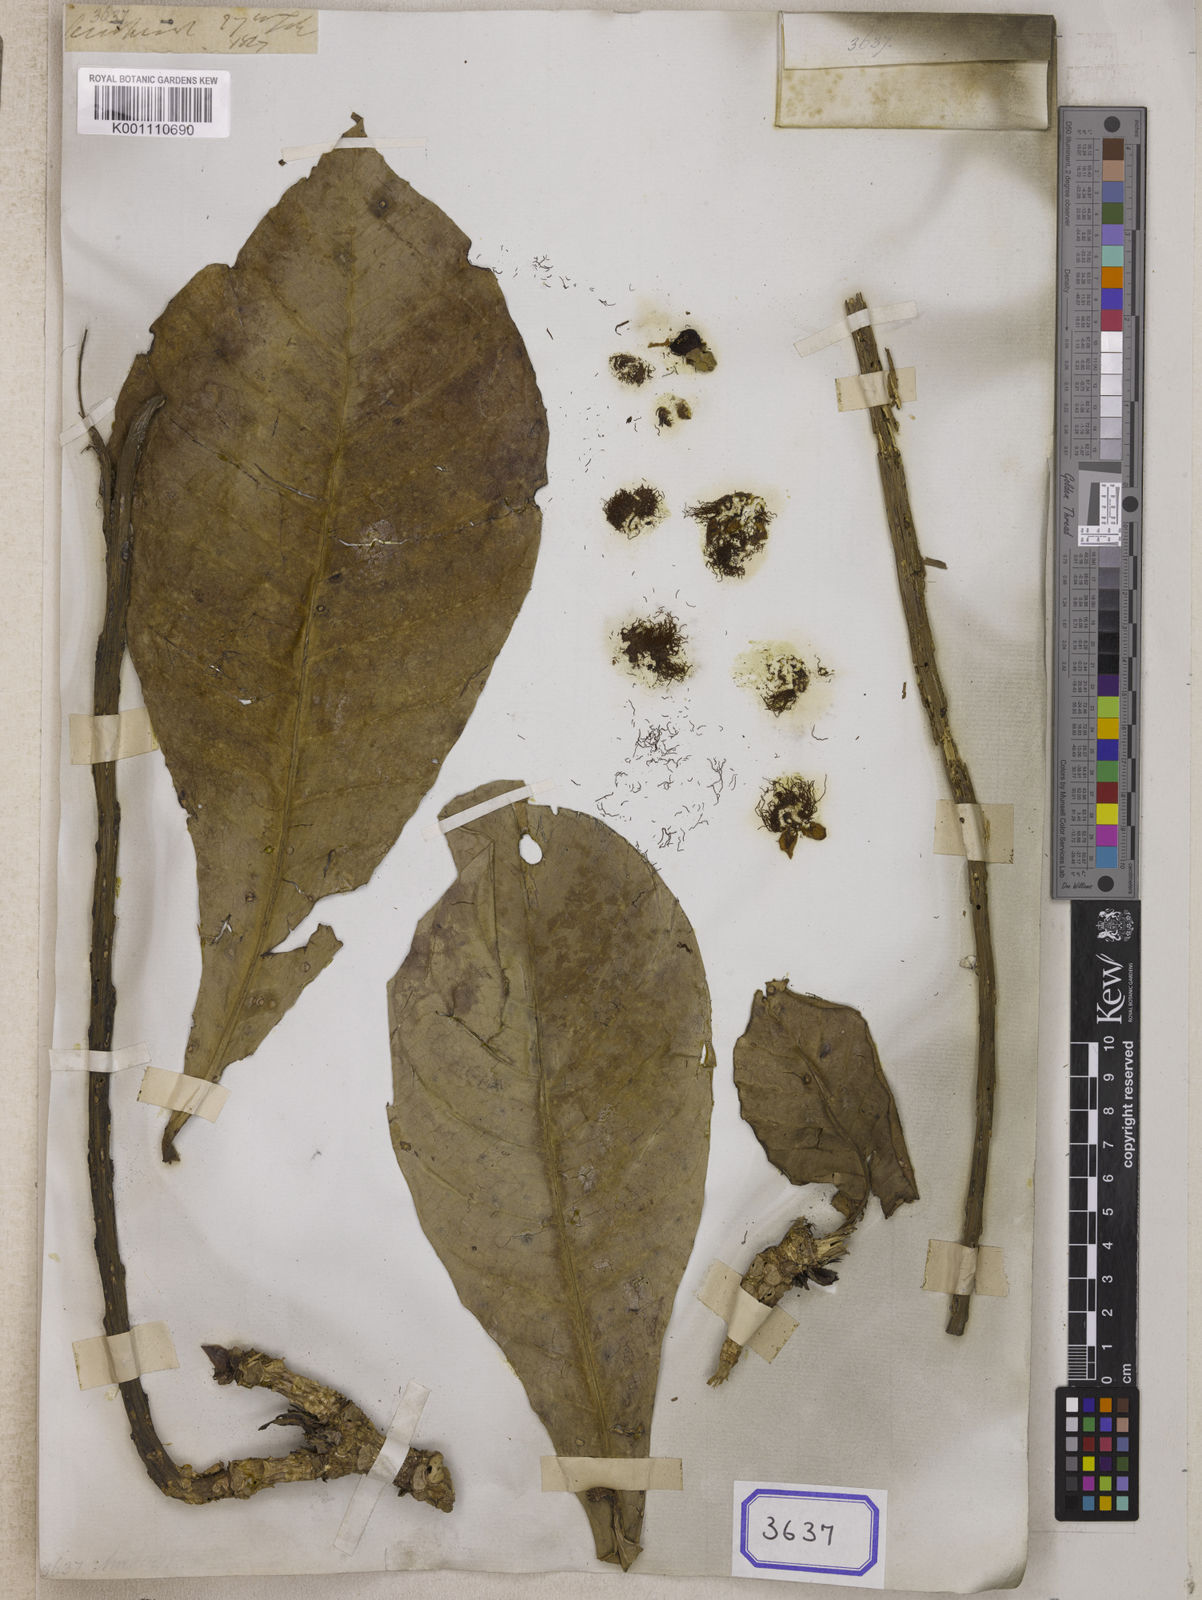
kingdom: Plantae
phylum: Tracheophyta
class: Magnoliopsida
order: Ericales
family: Lecythidaceae
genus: Barringtonia
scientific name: Barringtonia augusta
